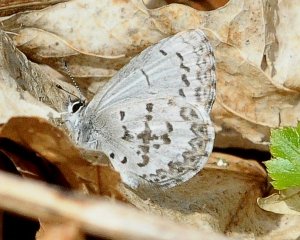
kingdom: Animalia
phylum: Arthropoda
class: Insecta
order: Lepidoptera
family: Lycaenidae
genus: Celastrina
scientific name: Celastrina lucia
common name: Northern Spring Azure
